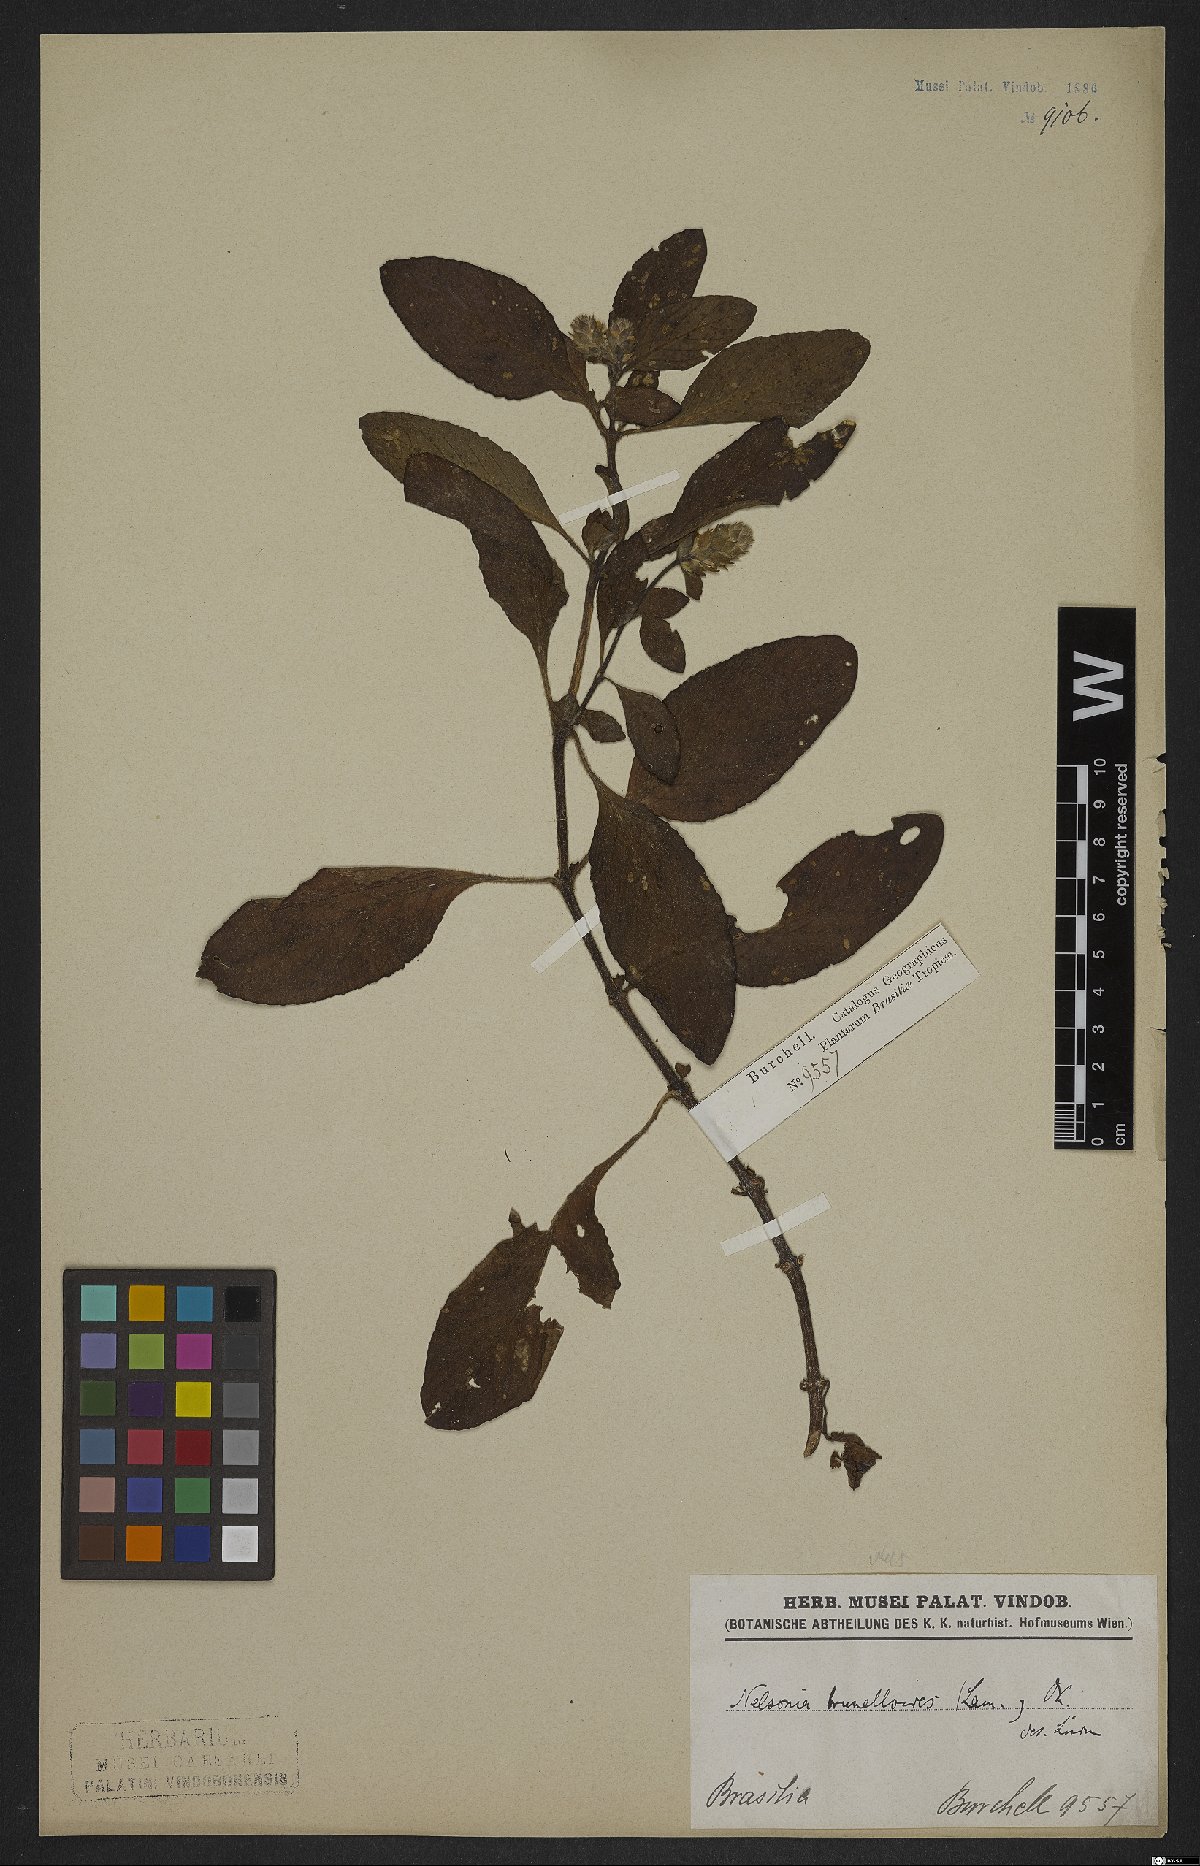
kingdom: Plantae
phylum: Tracheophyta
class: Magnoliopsida
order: Lamiales
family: Acanthaceae
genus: Strobilanthes
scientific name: Strobilanthes brunelloides
